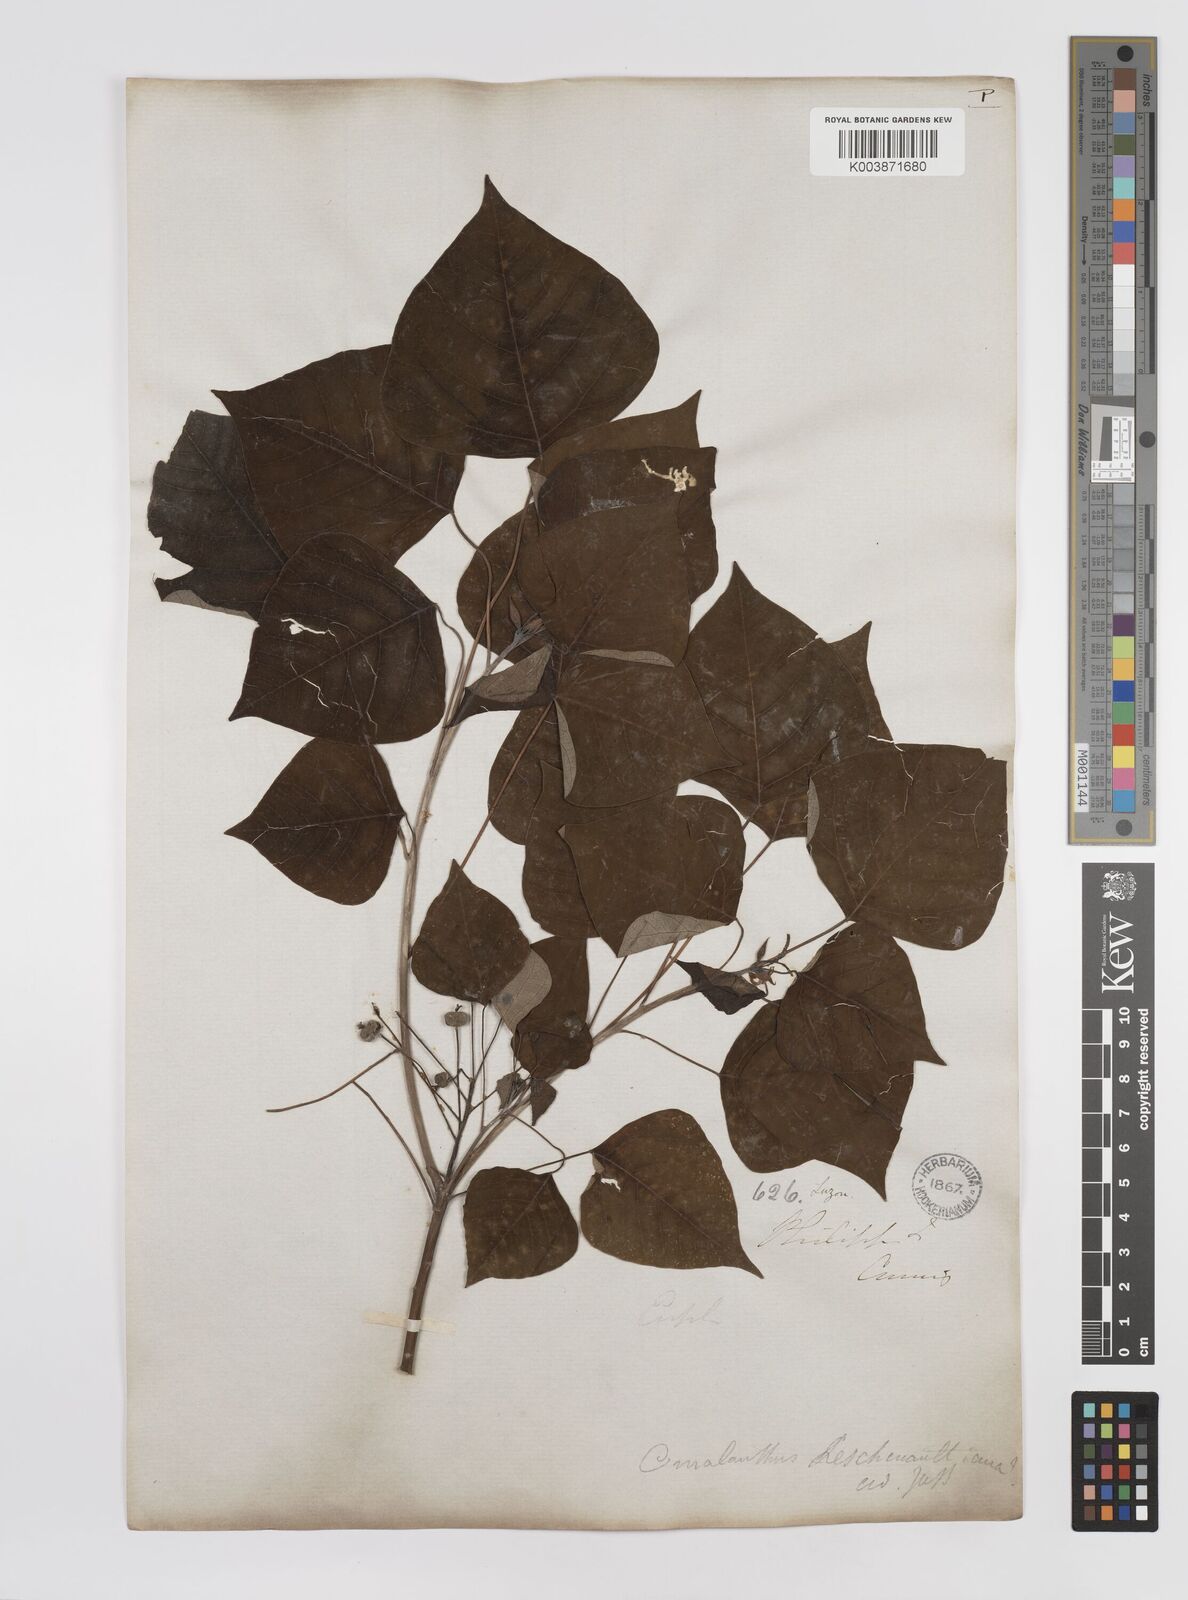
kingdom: Plantae
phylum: Tracheophyta
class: Magnoliopsida
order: Malpighiales
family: Euphorbiaceae
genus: Homalanthus
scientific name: Homalanthus populneus
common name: Spurge
